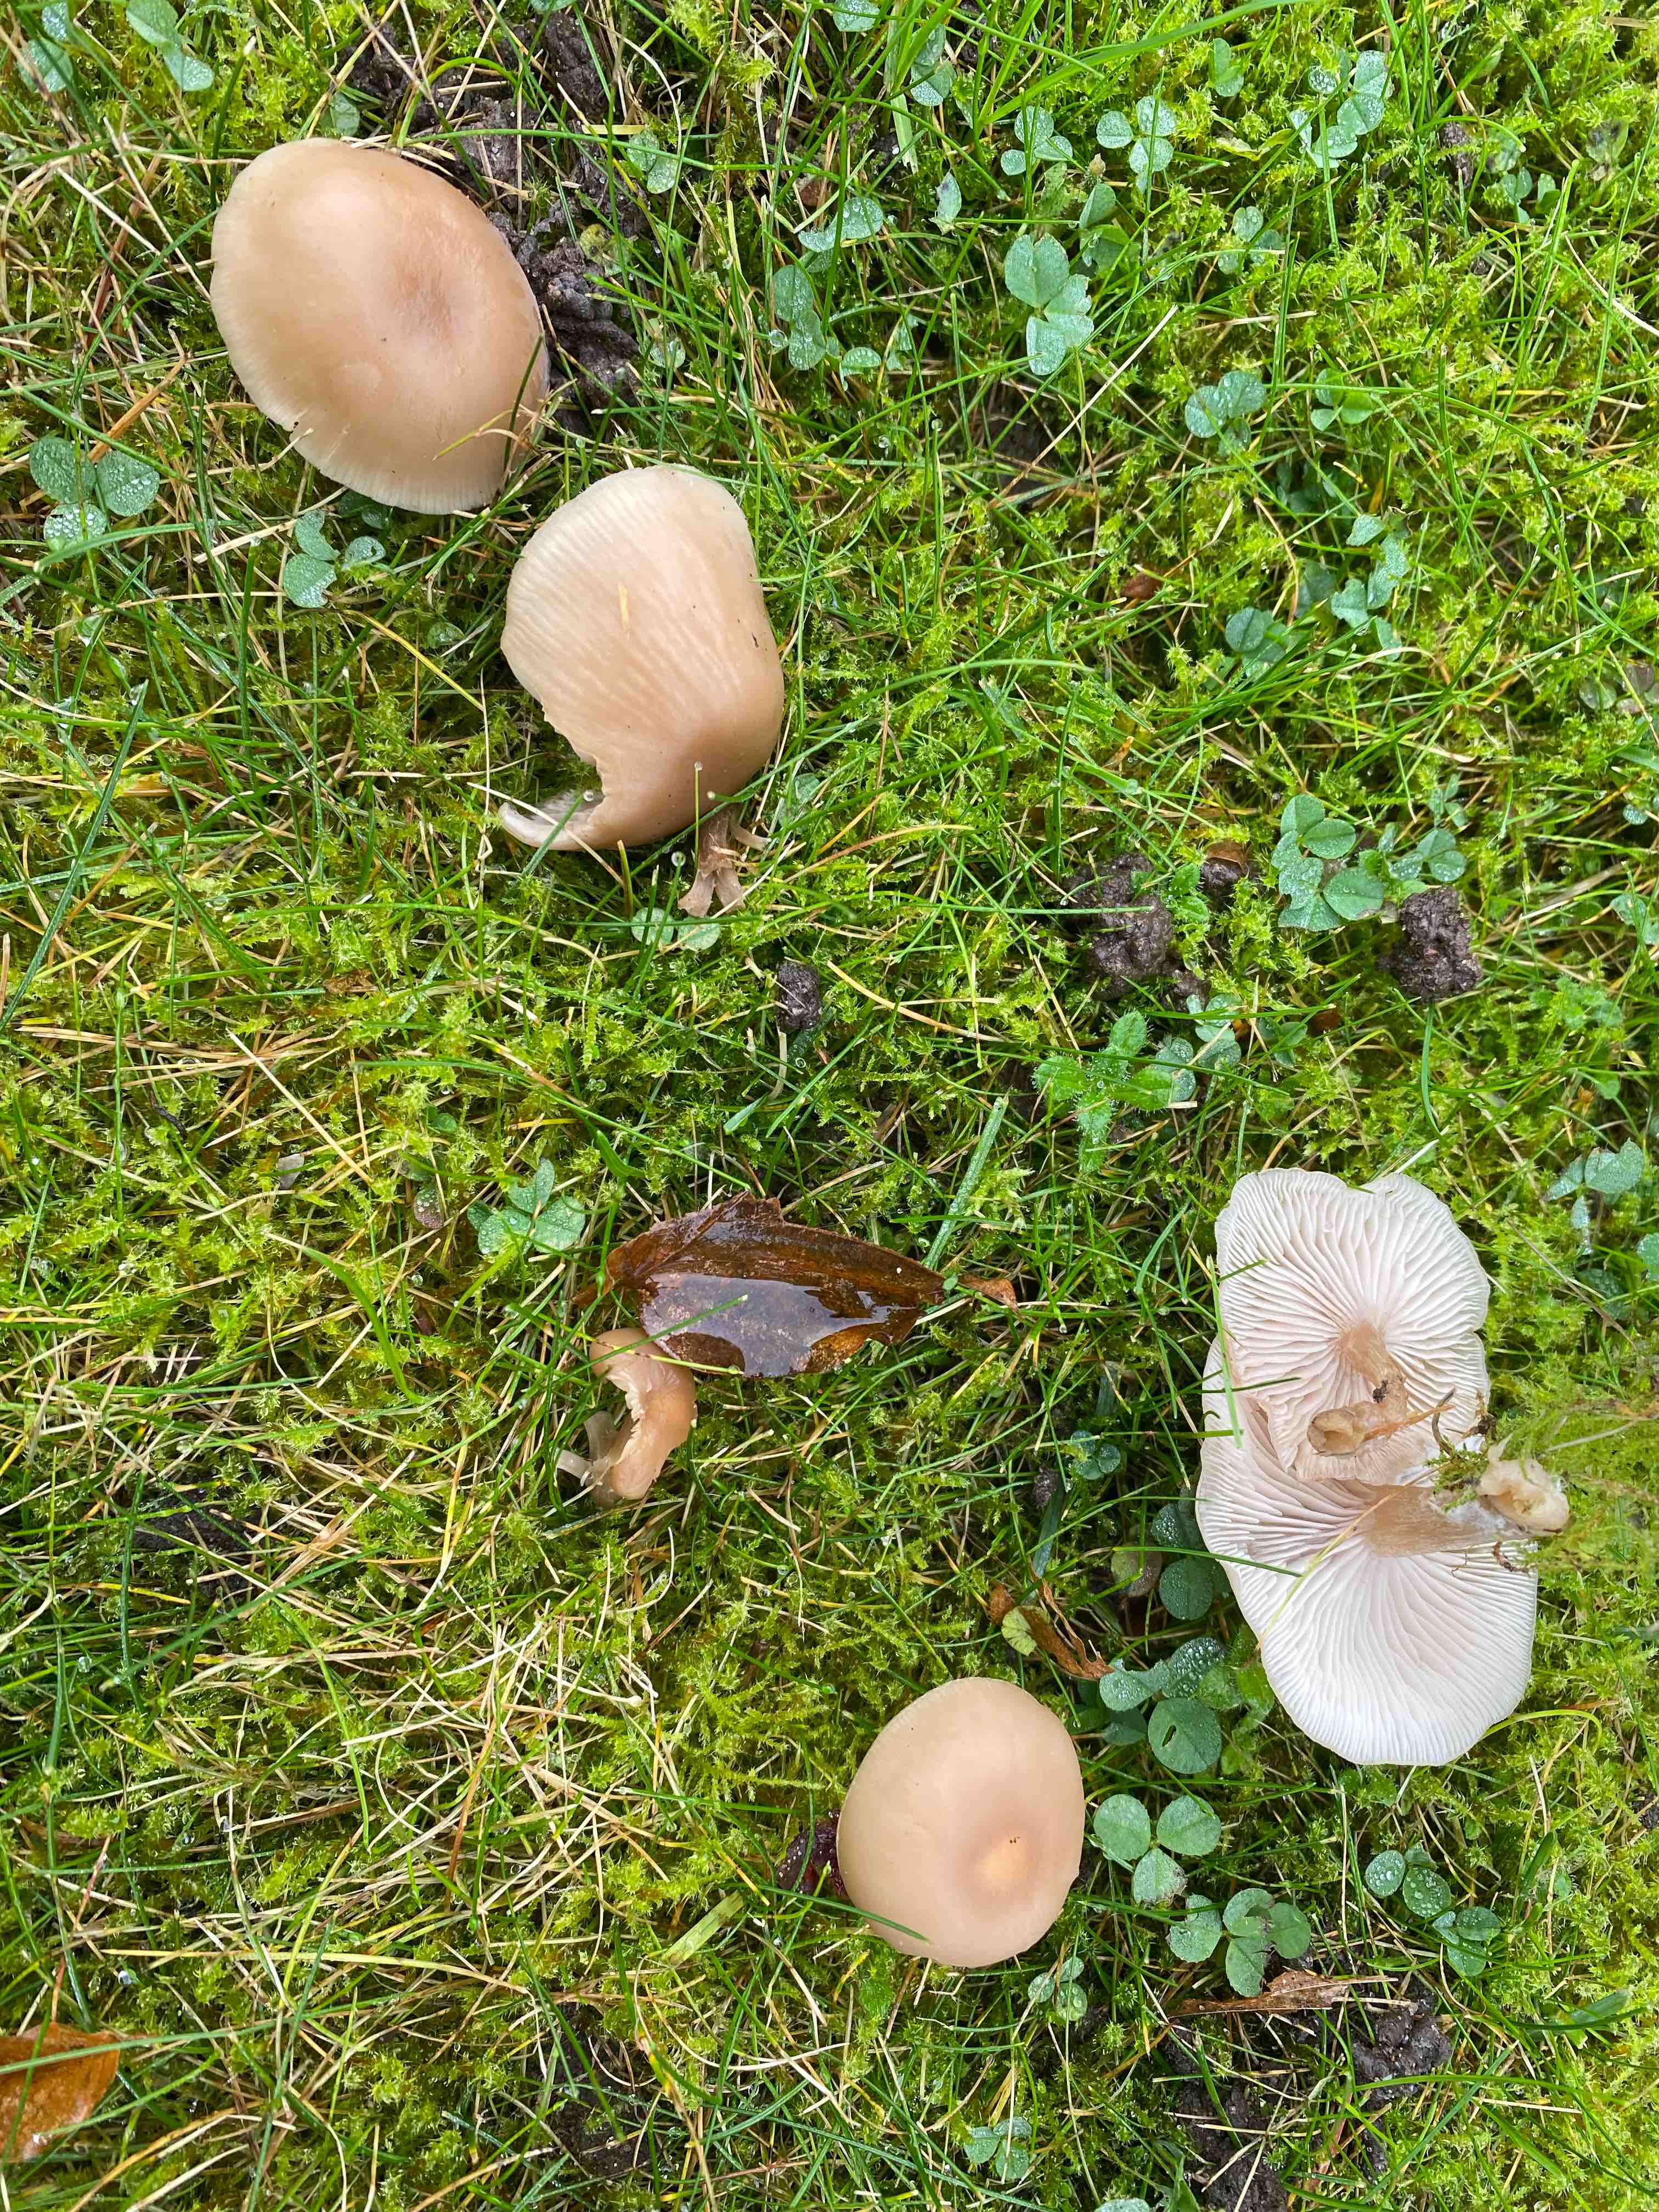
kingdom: Fungi
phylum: Basidiomycota
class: Agaricomycetes
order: Agaricales
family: Tricholomataceae
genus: Clitocybe
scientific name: Clitocybe fragrans
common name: vellugtende tragthat
